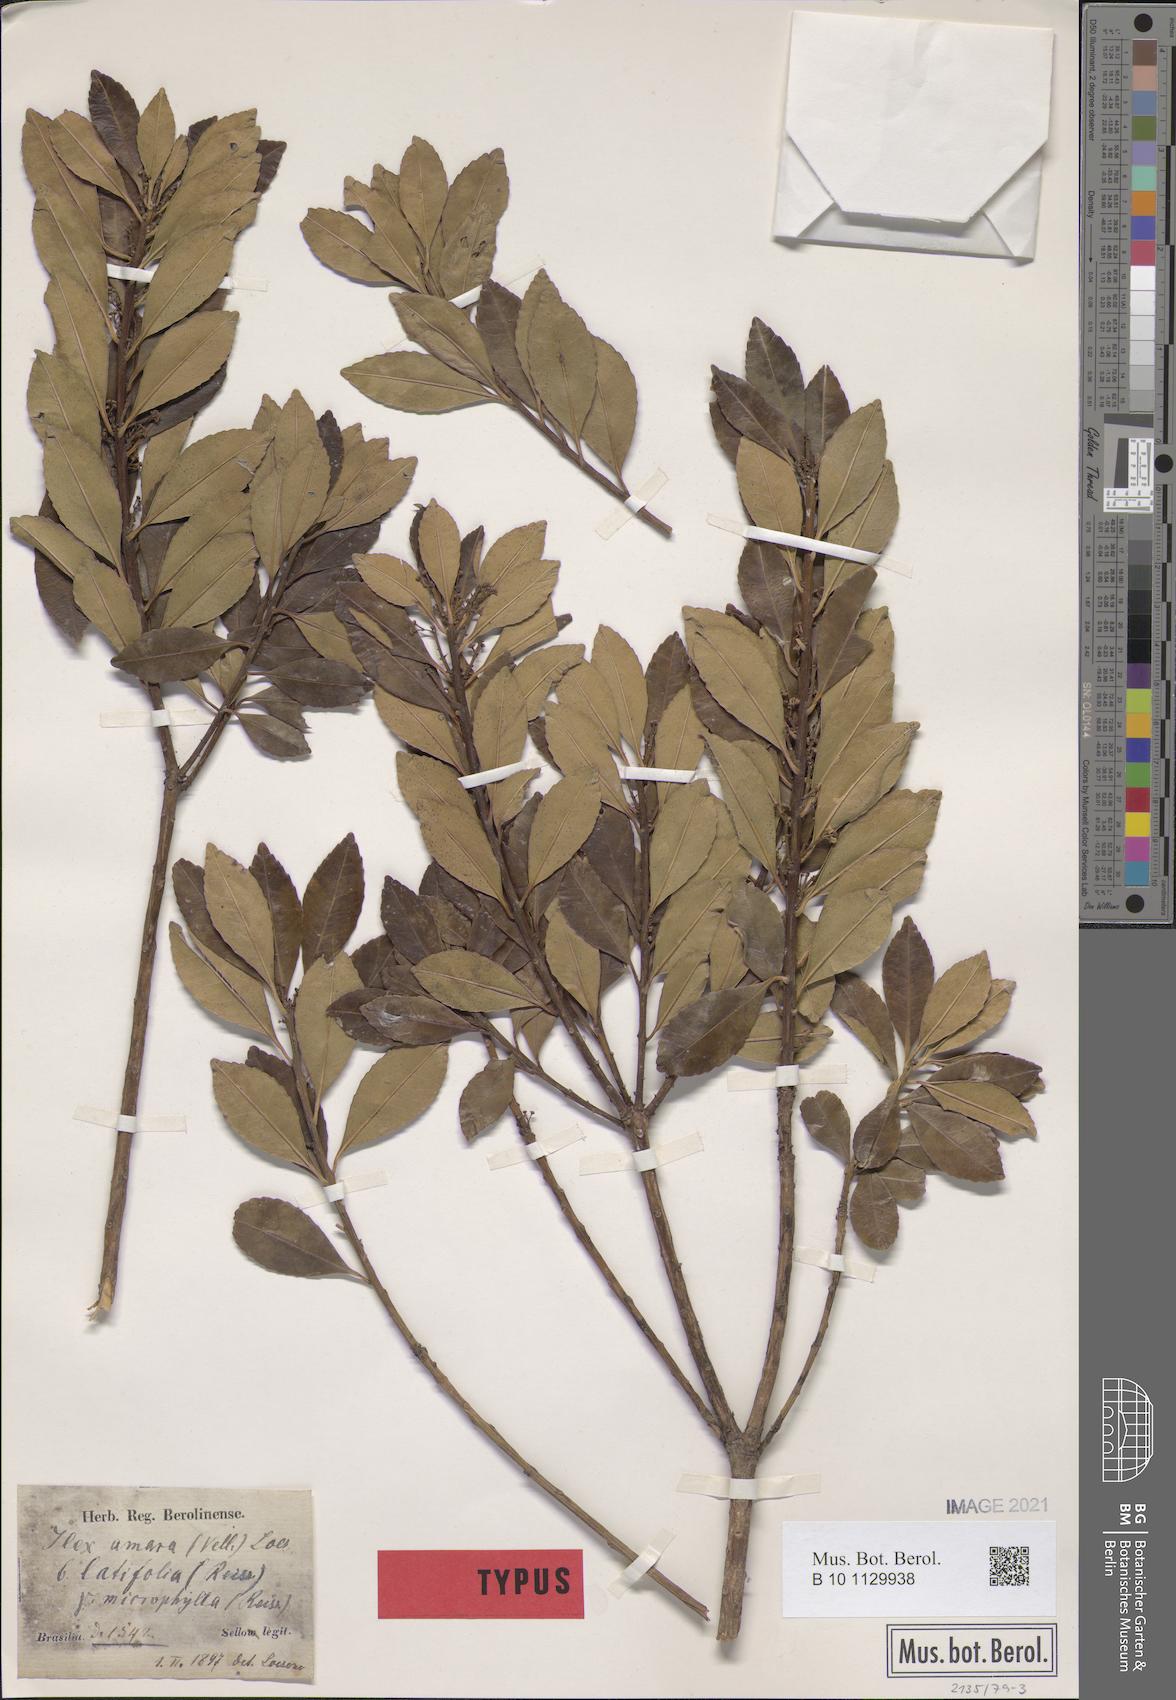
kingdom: Plantae
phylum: Tracheophyta
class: Magnoliopsida
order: Aquifoliales
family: Aquifoliaceae
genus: Ilex
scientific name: Ilex nigropunctata
